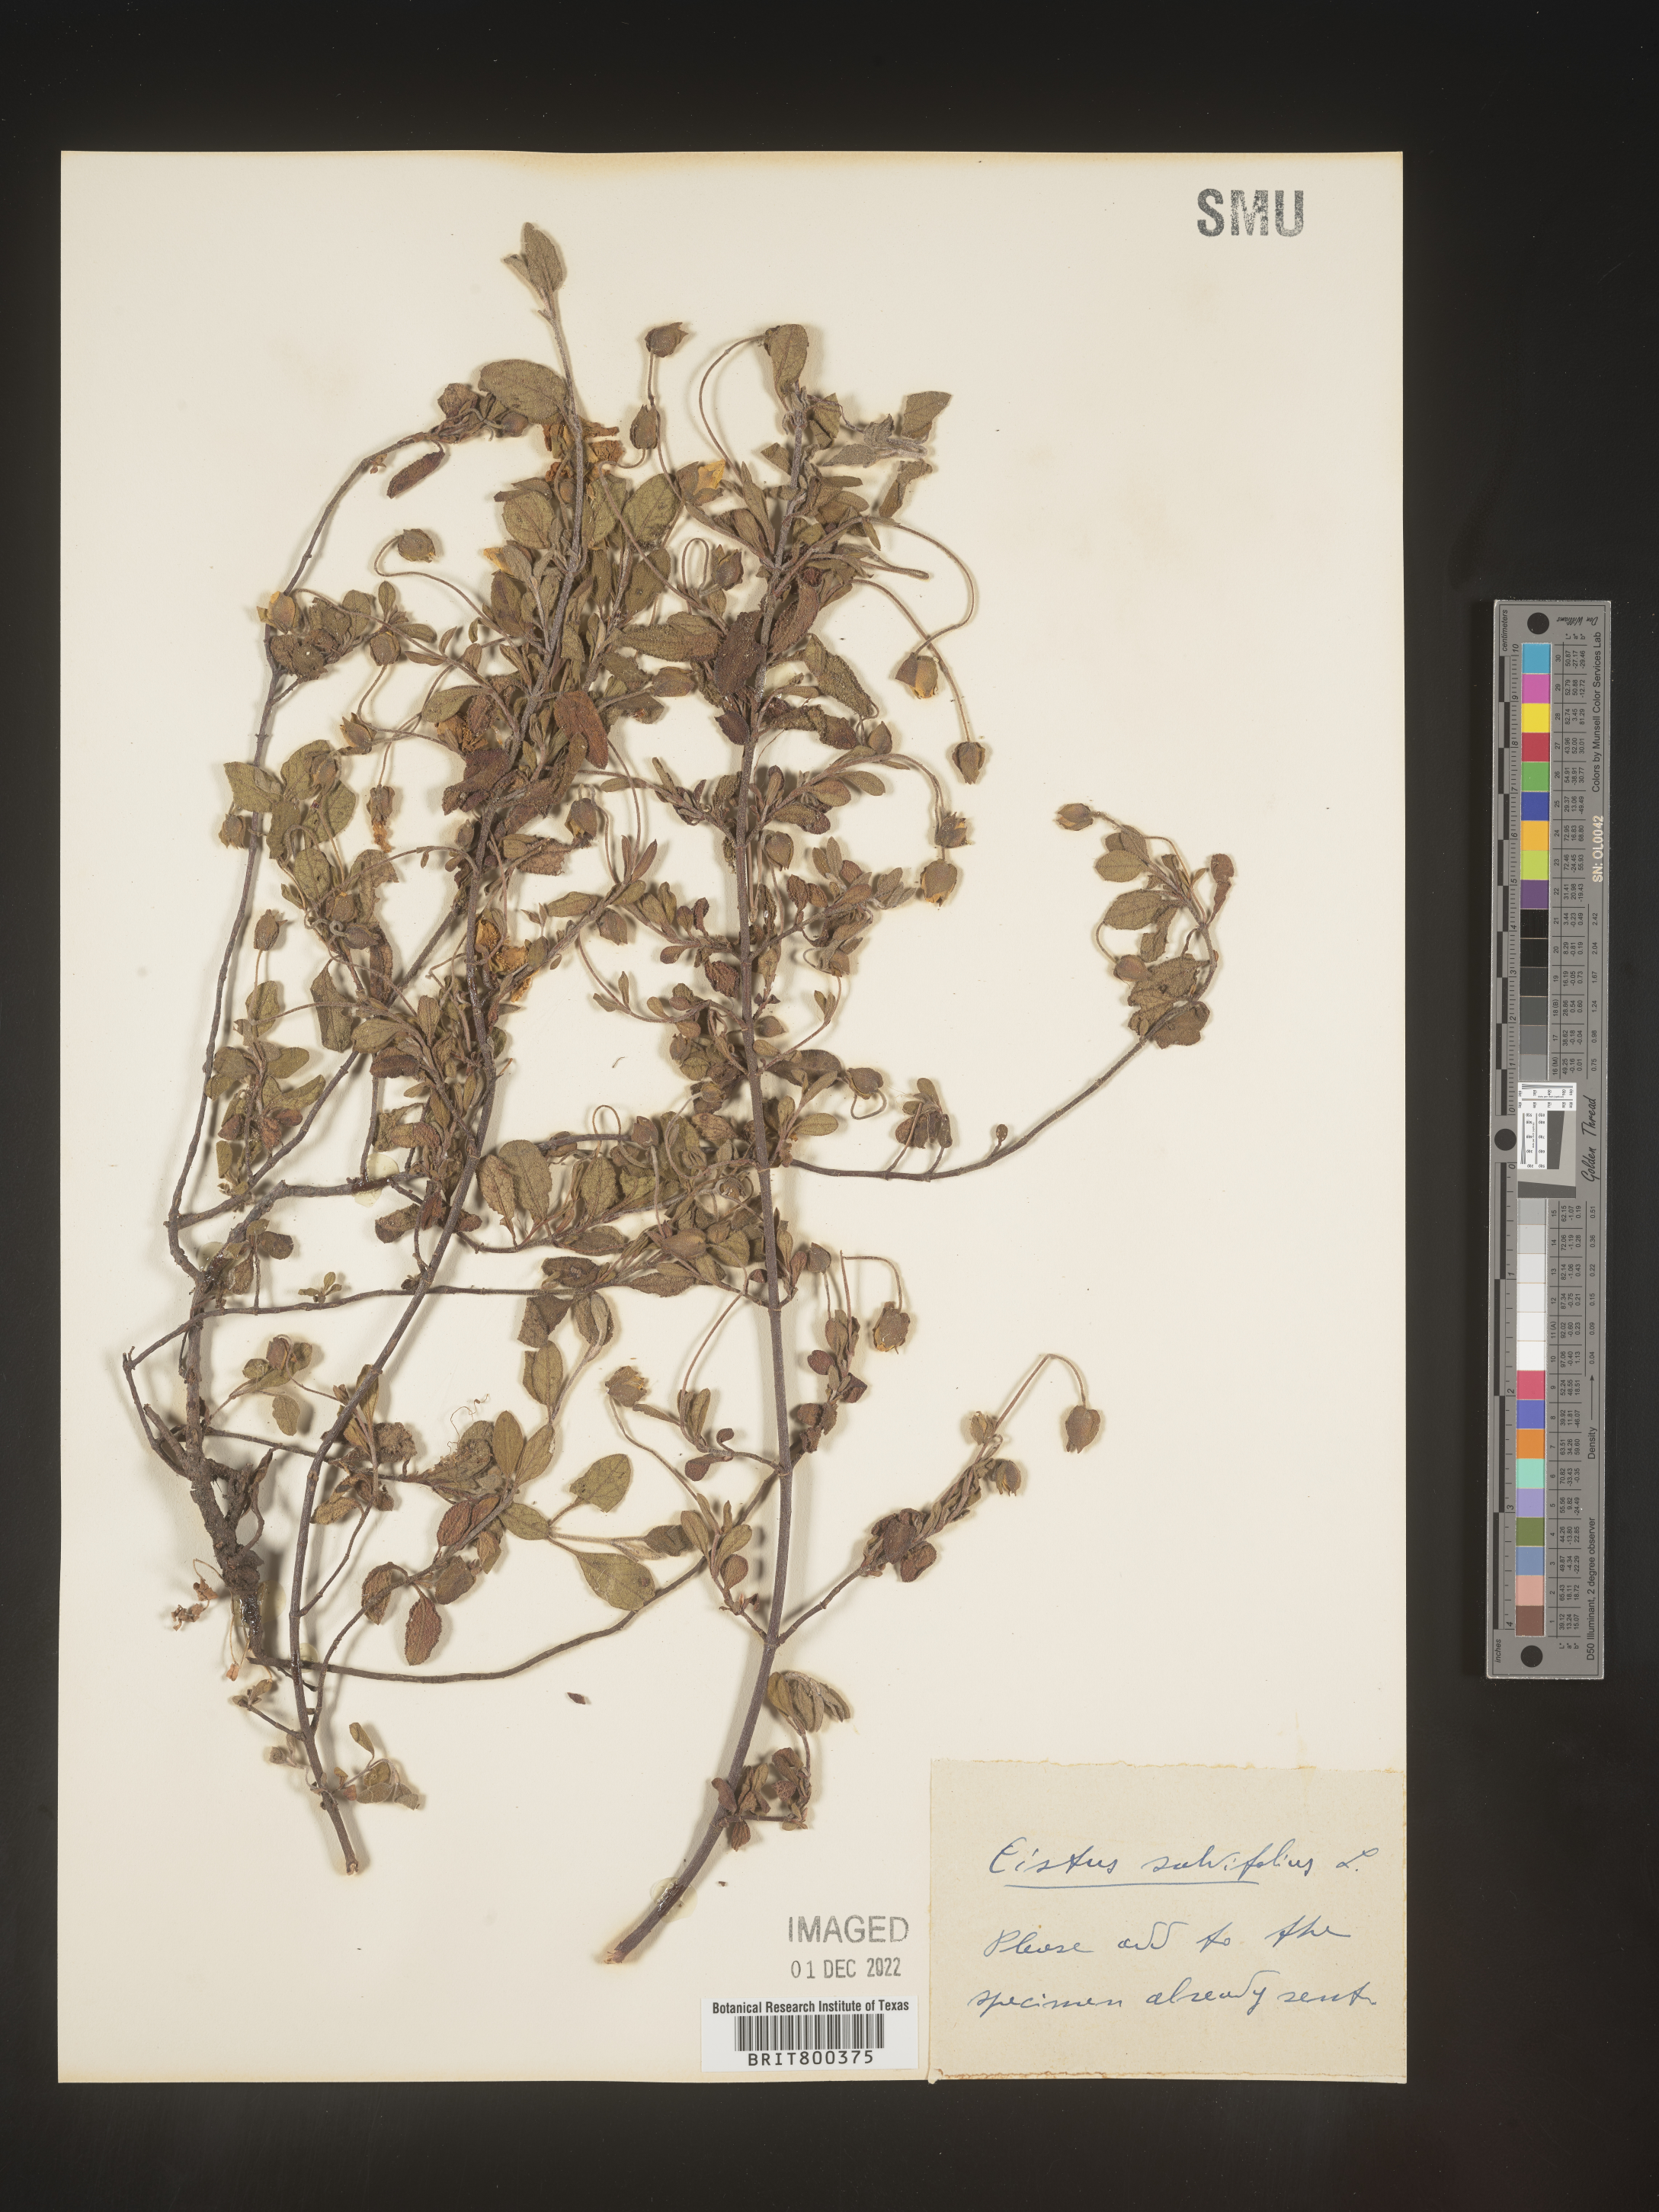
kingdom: Plantae
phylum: Tracheophyta
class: Magnoliopsida
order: Malvales
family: Cistaceae
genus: Cistus
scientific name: Cistus
